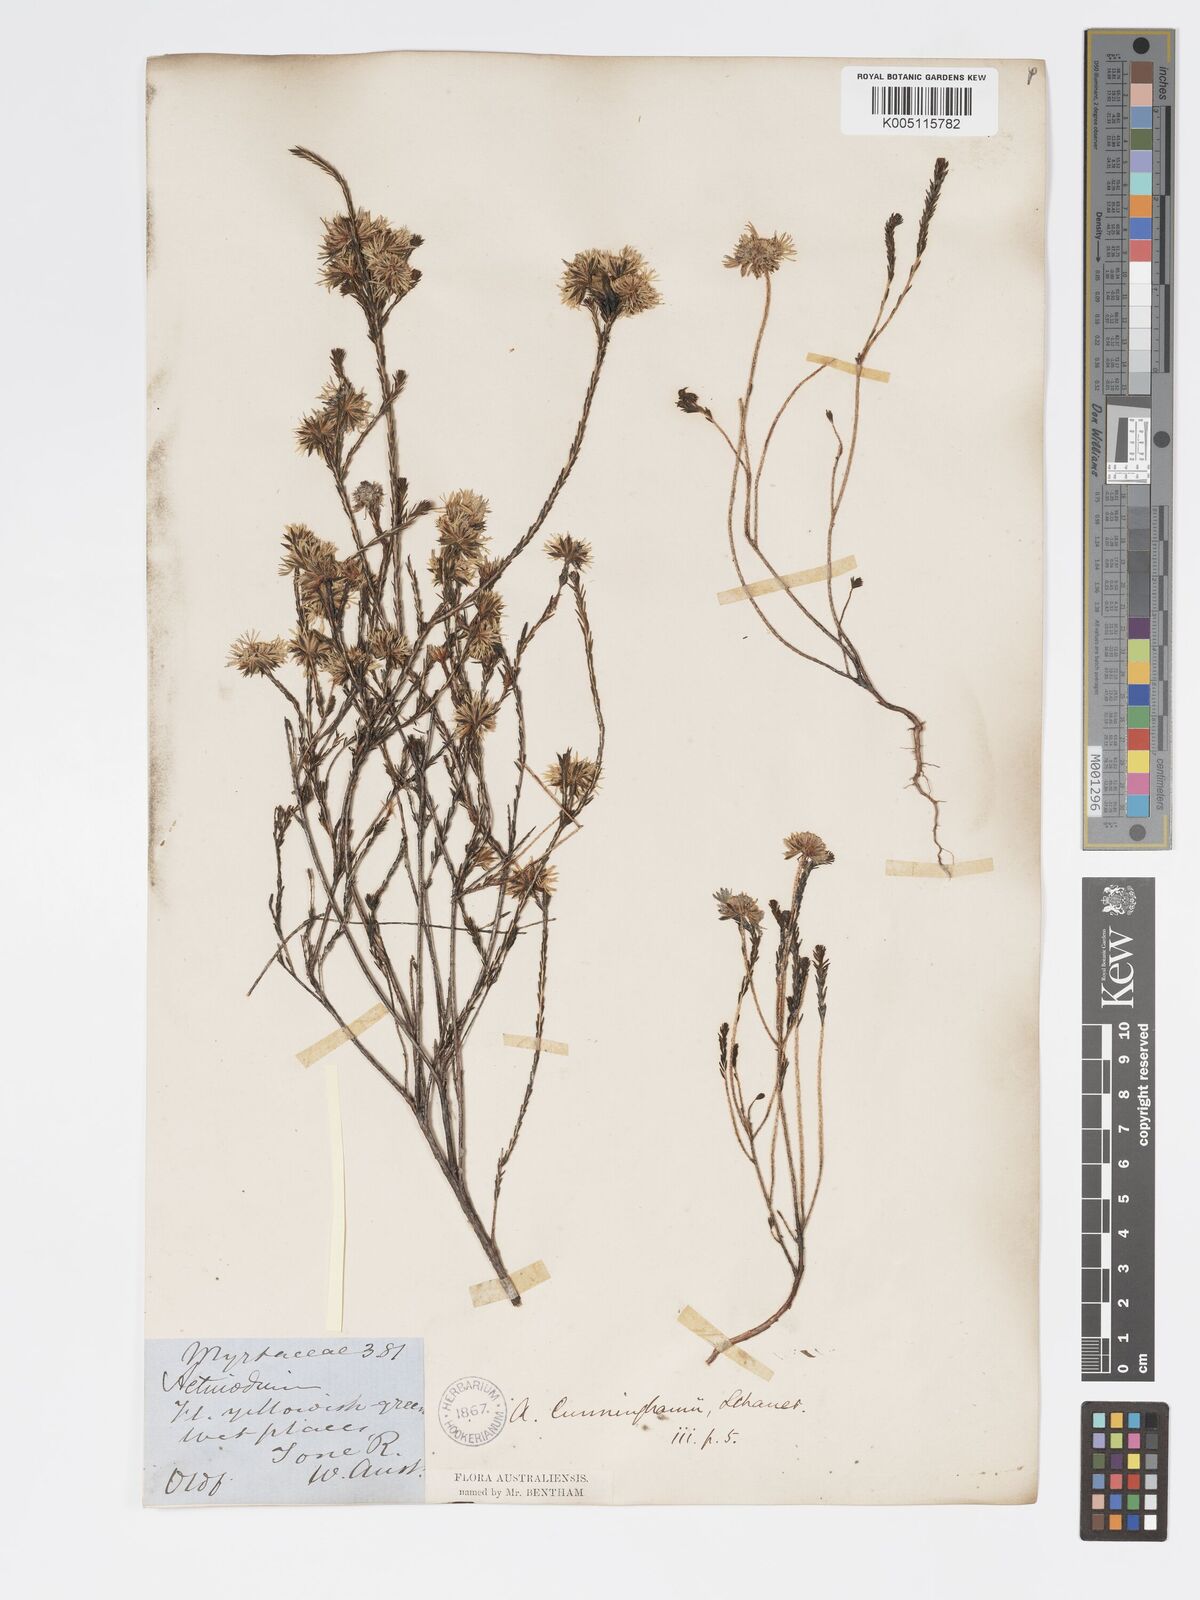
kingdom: Plantae
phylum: Tracheophyta
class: Magnoliopsida
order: Myrtales
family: Myrtaceae
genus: Actinodium
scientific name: Actinodium cunninghamii
